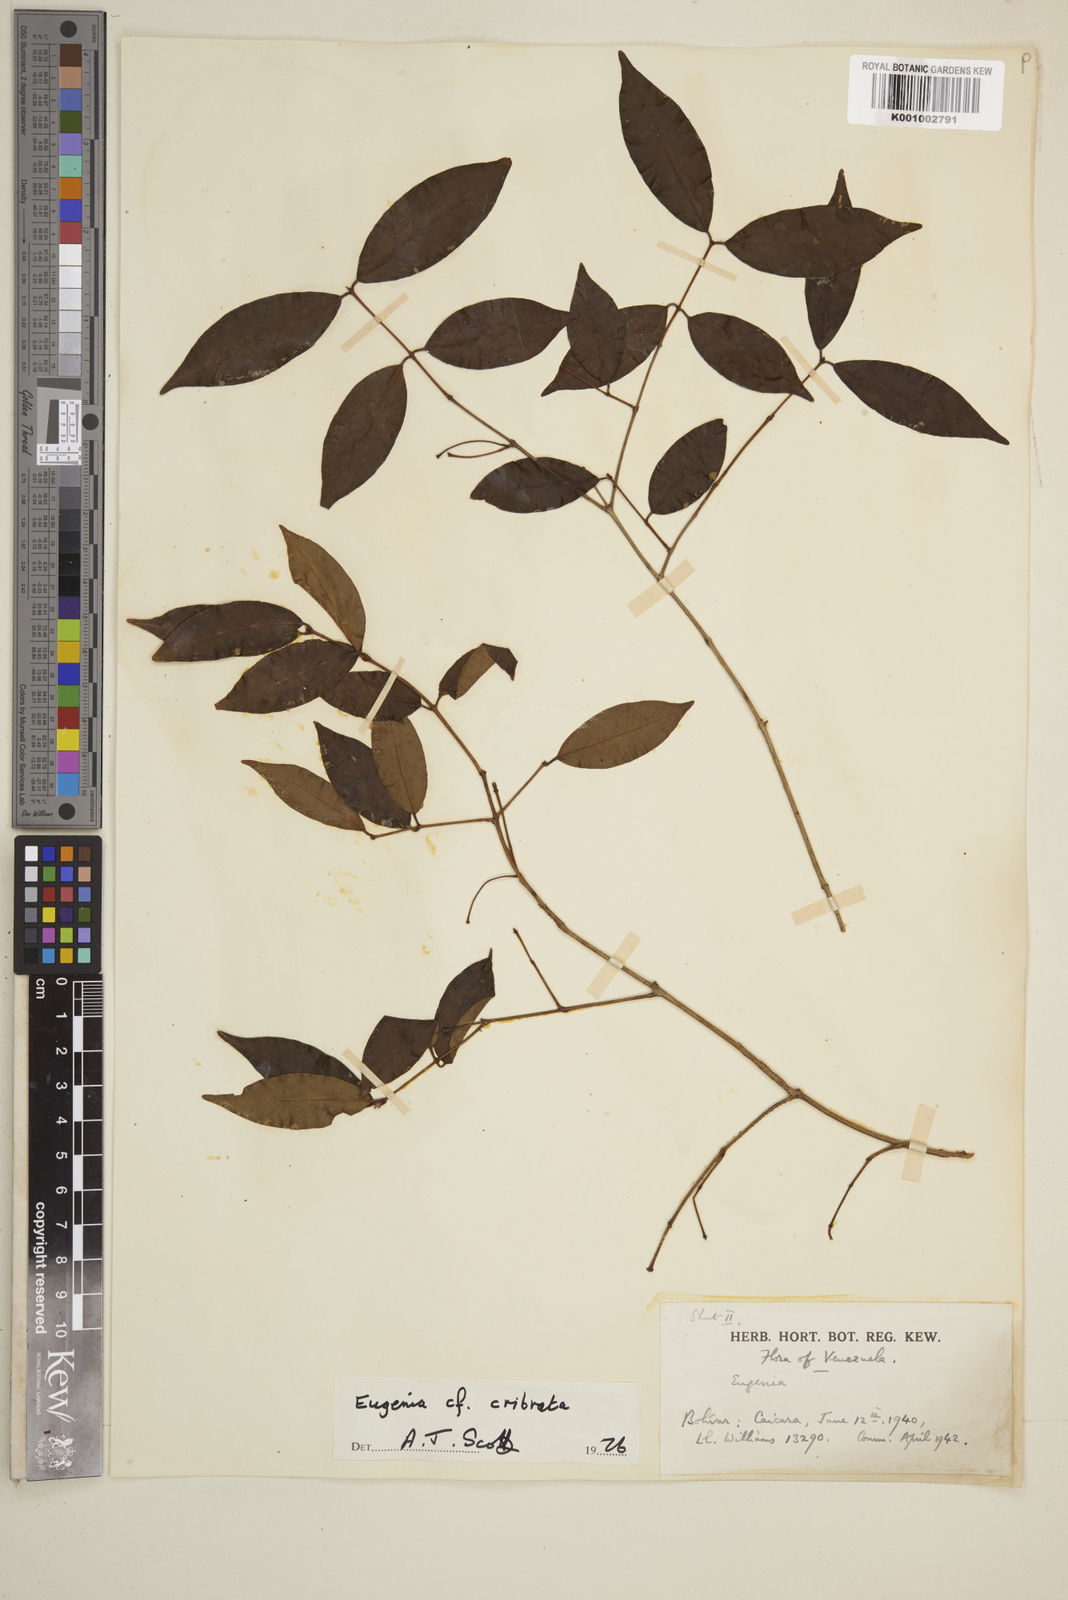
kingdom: Plantae
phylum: Tracheophyta
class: Magnoliopsida
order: Myrtales
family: Myrtaceae
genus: Eugenia
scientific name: Eugenia cribrata
